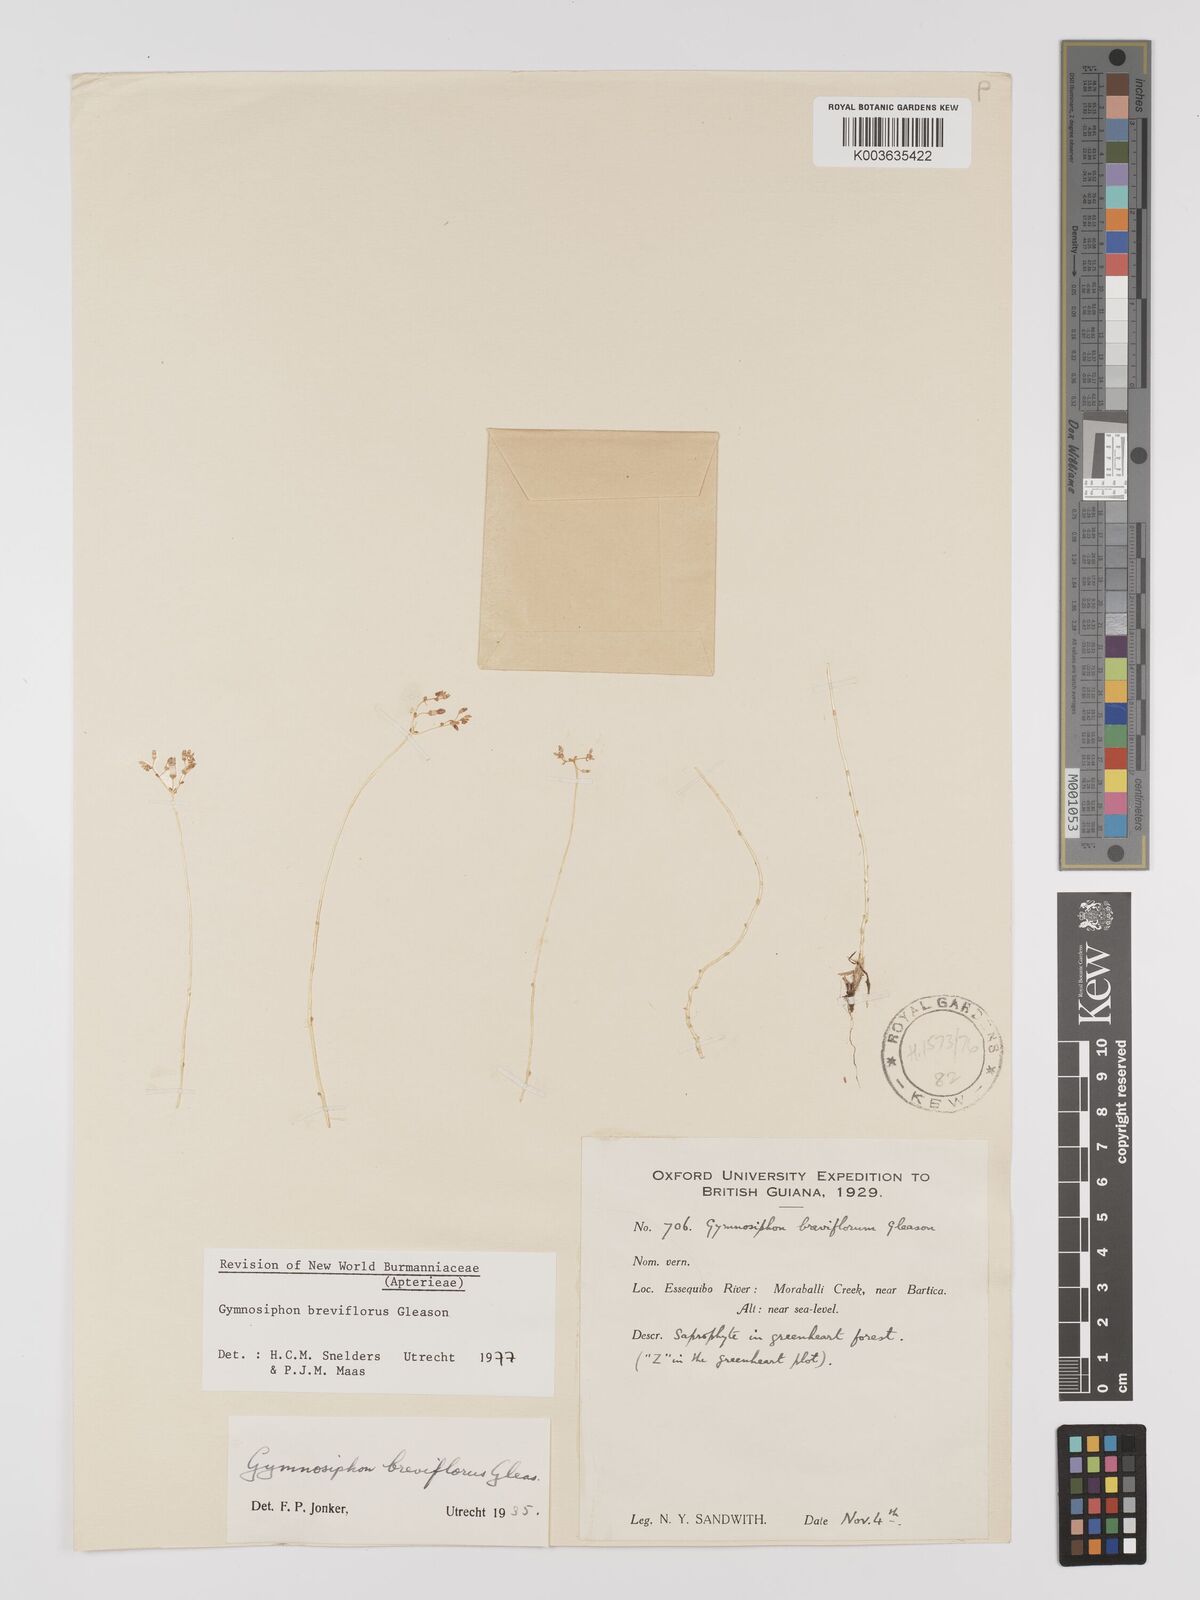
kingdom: Plantae
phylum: Tracheophyta
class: Liliopsida
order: Dioscoreales
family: Burmanniaceae
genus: Gymnosiphon
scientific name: Gymnosiphon breviflorus
